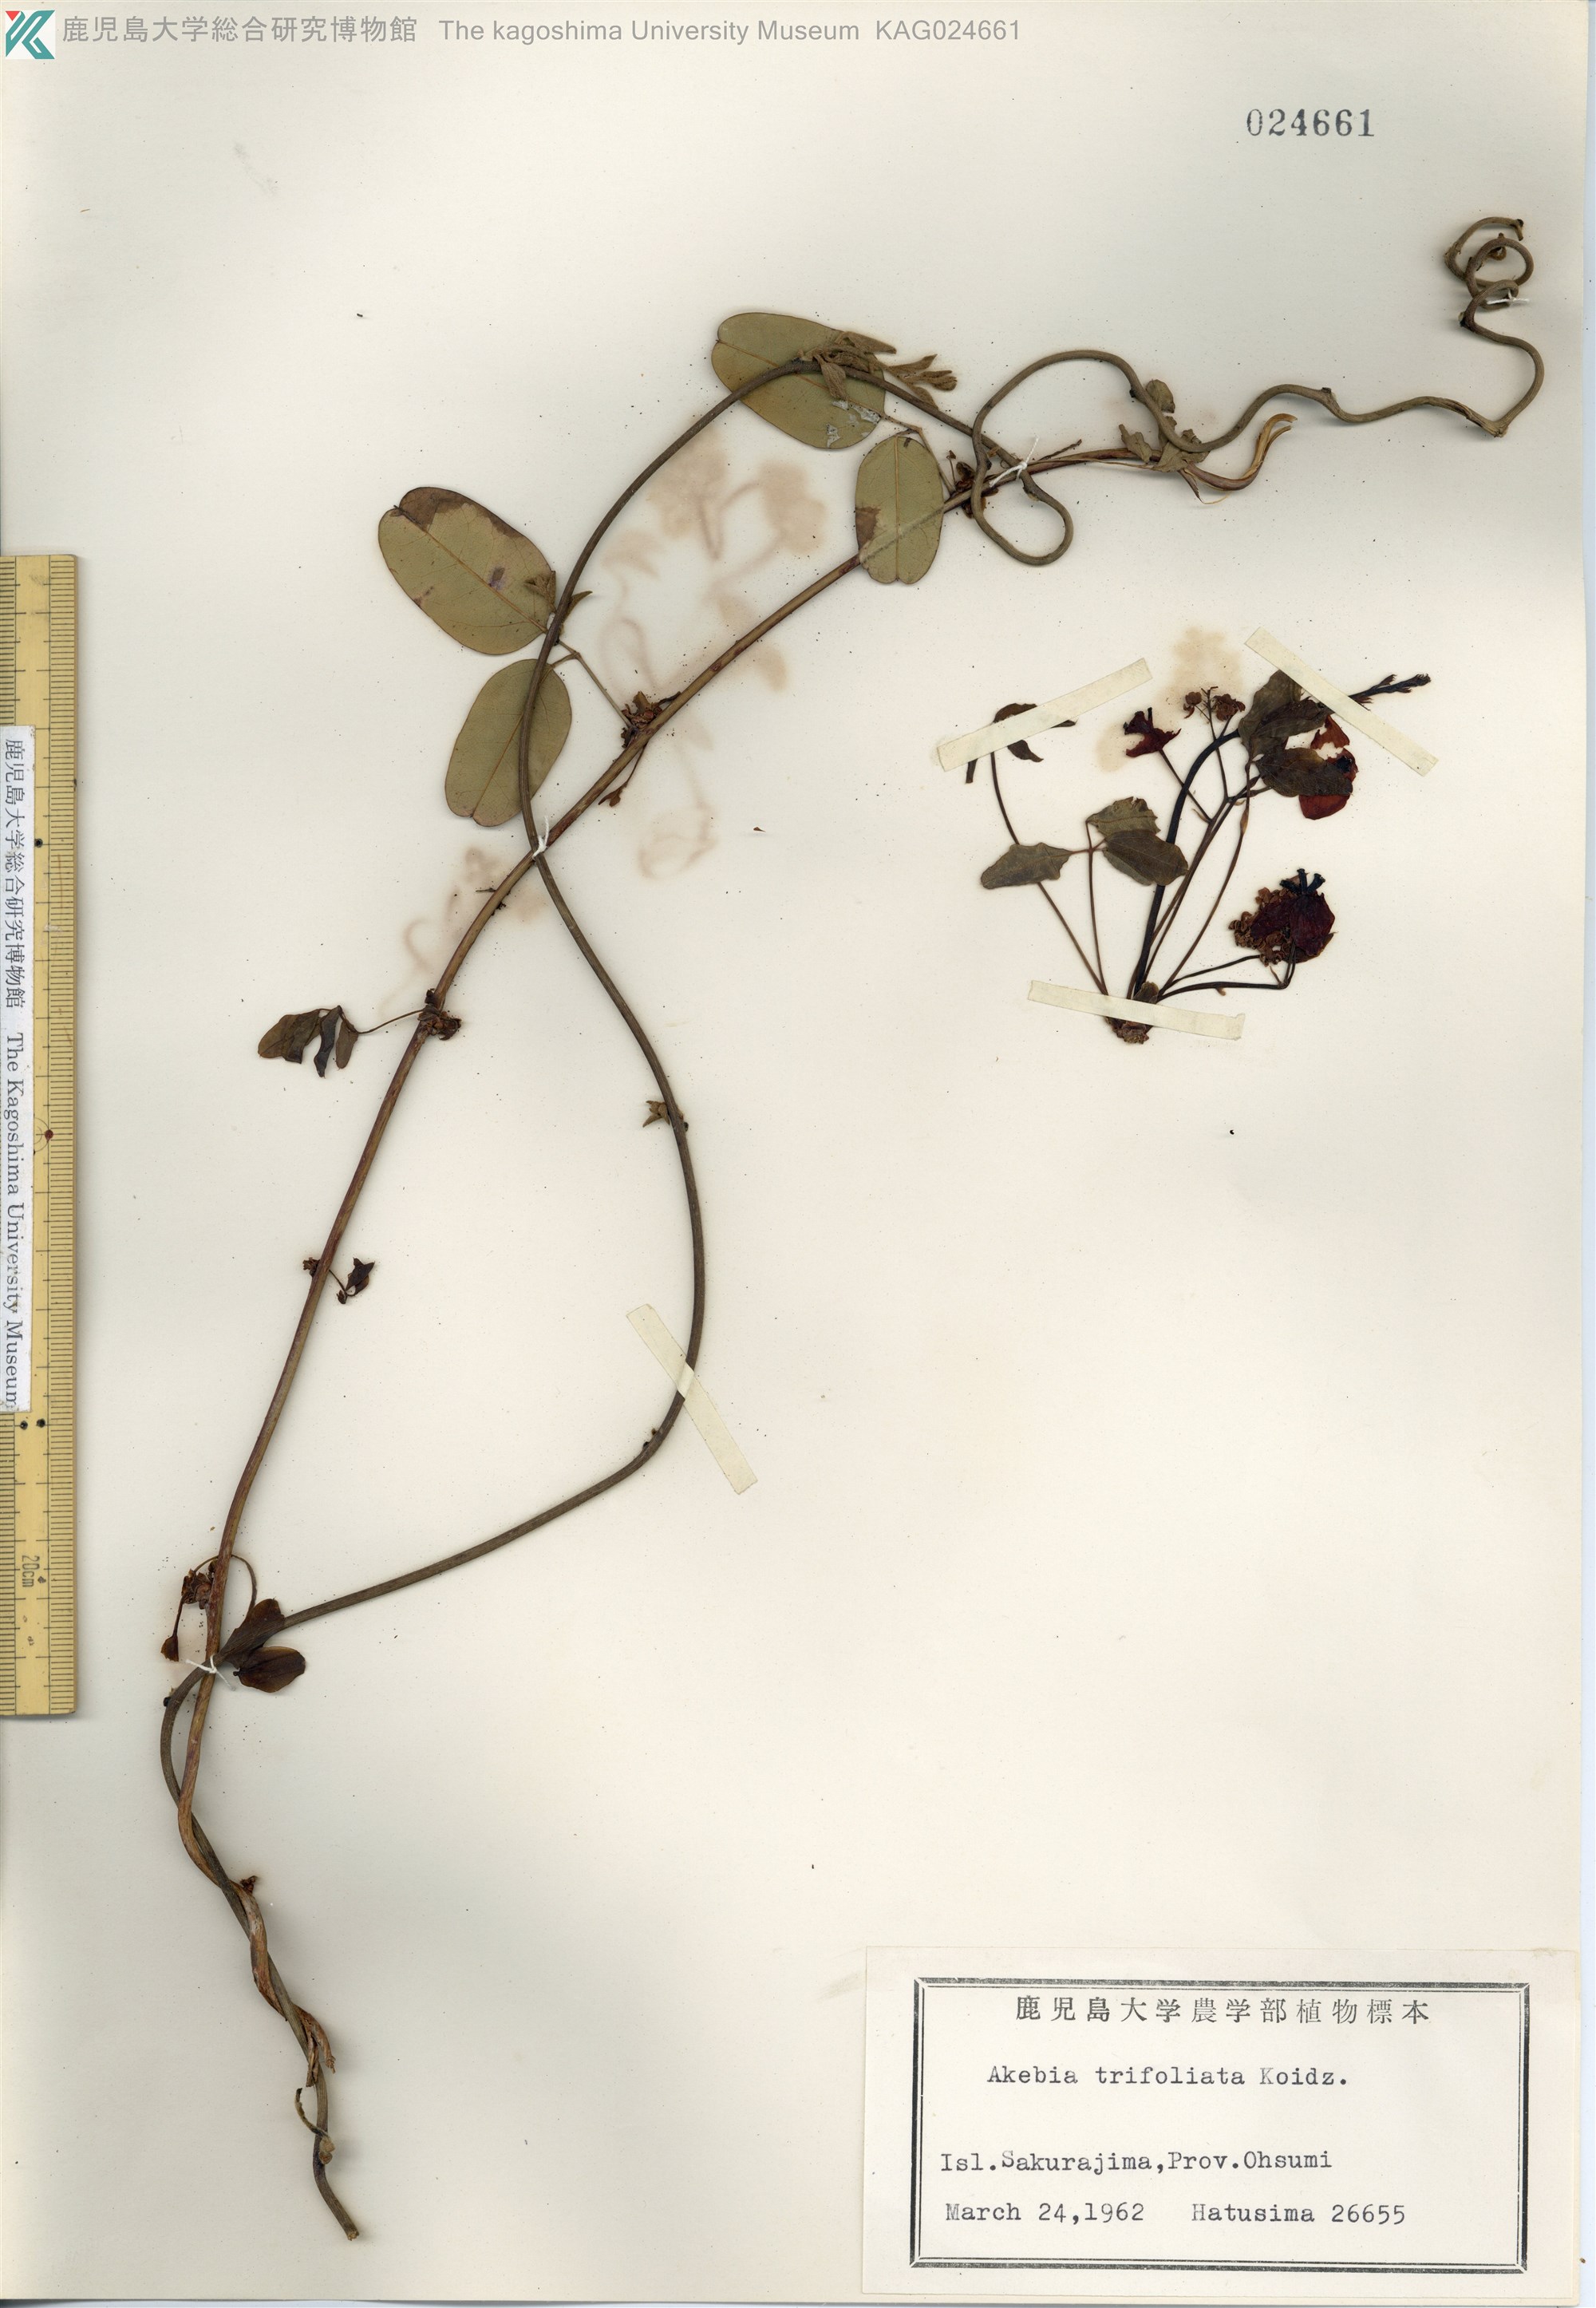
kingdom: Plantae
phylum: Tracheophyta
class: Magnoliopsida
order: Ranunculales
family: Lardizabalaceae
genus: Akebia
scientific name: Akebia trifoliata
